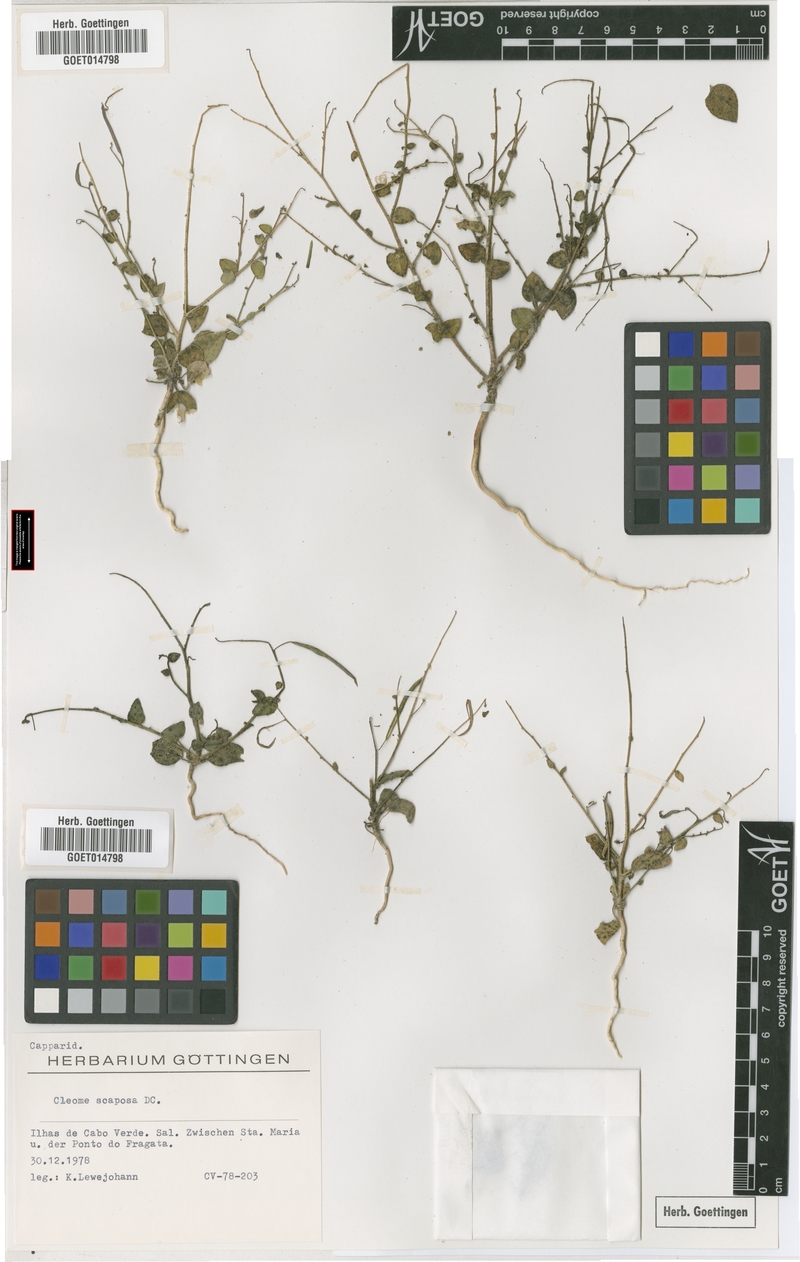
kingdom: Plantae
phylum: Tracheophyta
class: Magnoliopsida
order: Brassicales
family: Cleomaceae
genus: Gilgella
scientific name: Gilgella scaposa
